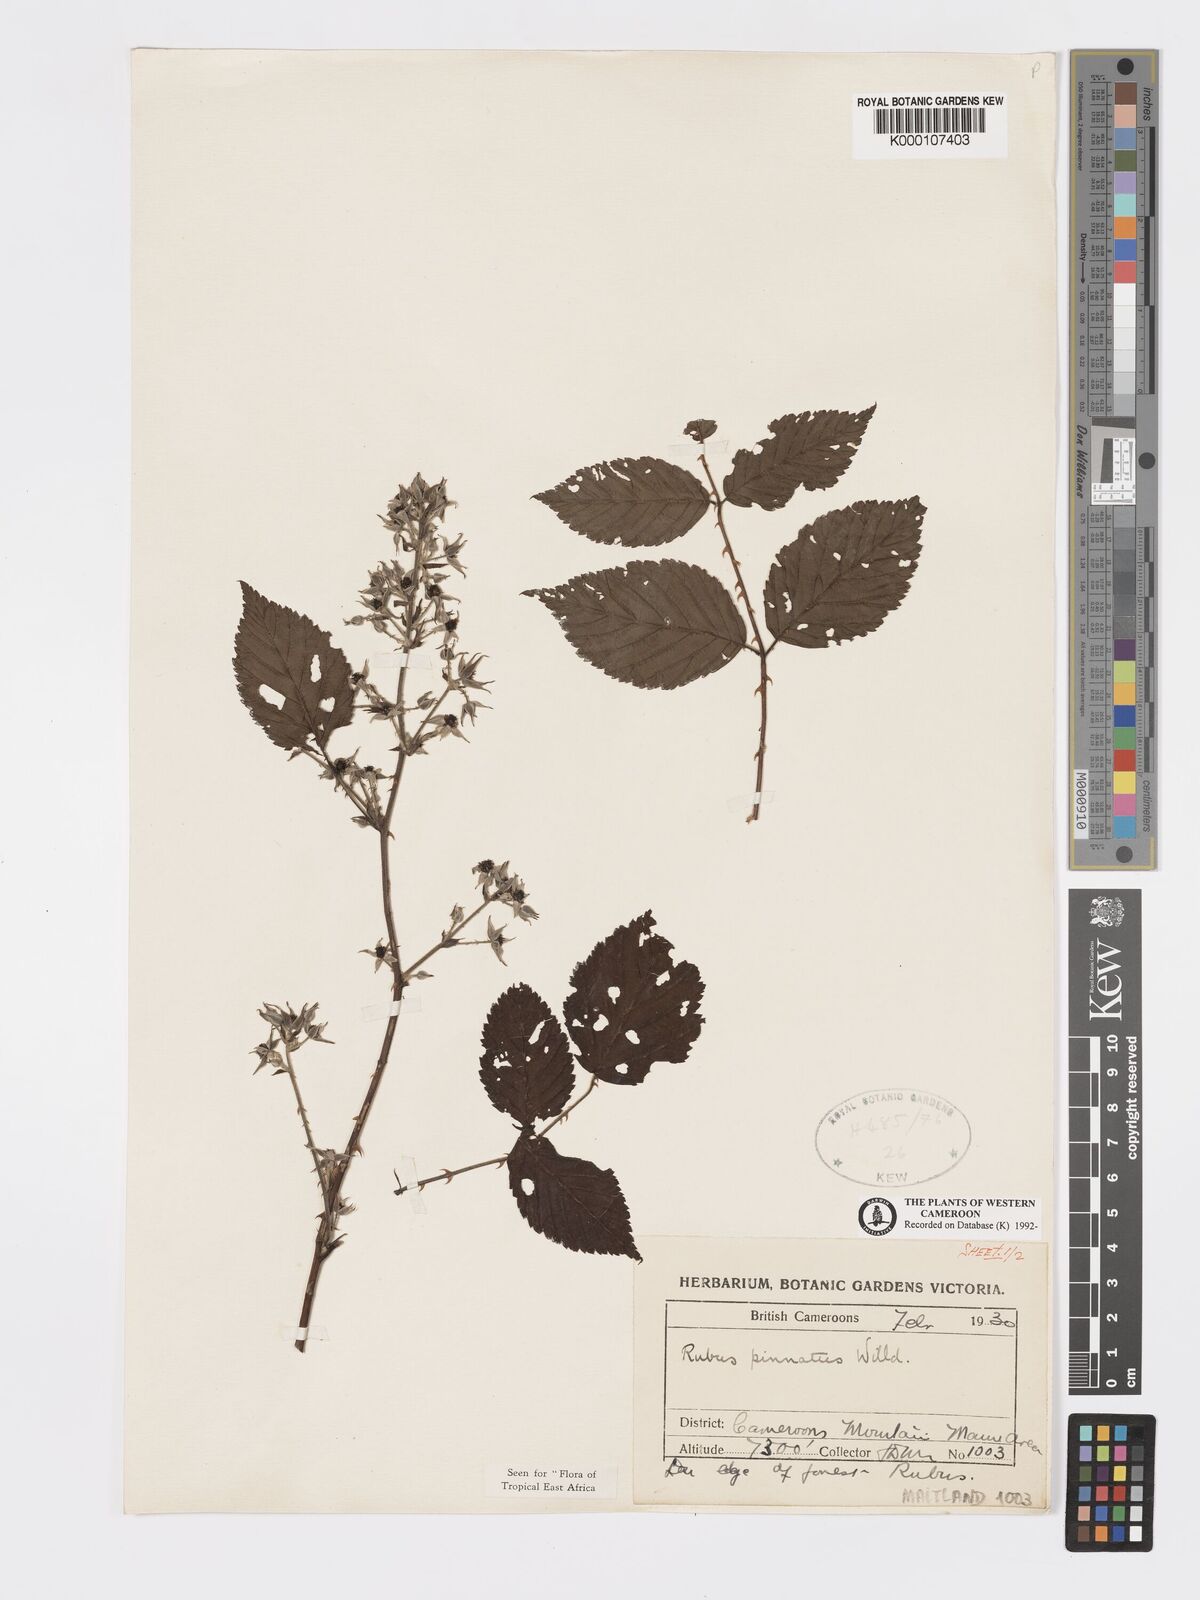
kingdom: Plantae
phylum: Tracheophyta
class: Magnoliopsida
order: Rosales
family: Rosaceae
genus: Rubus
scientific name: Rubus pinnatus
